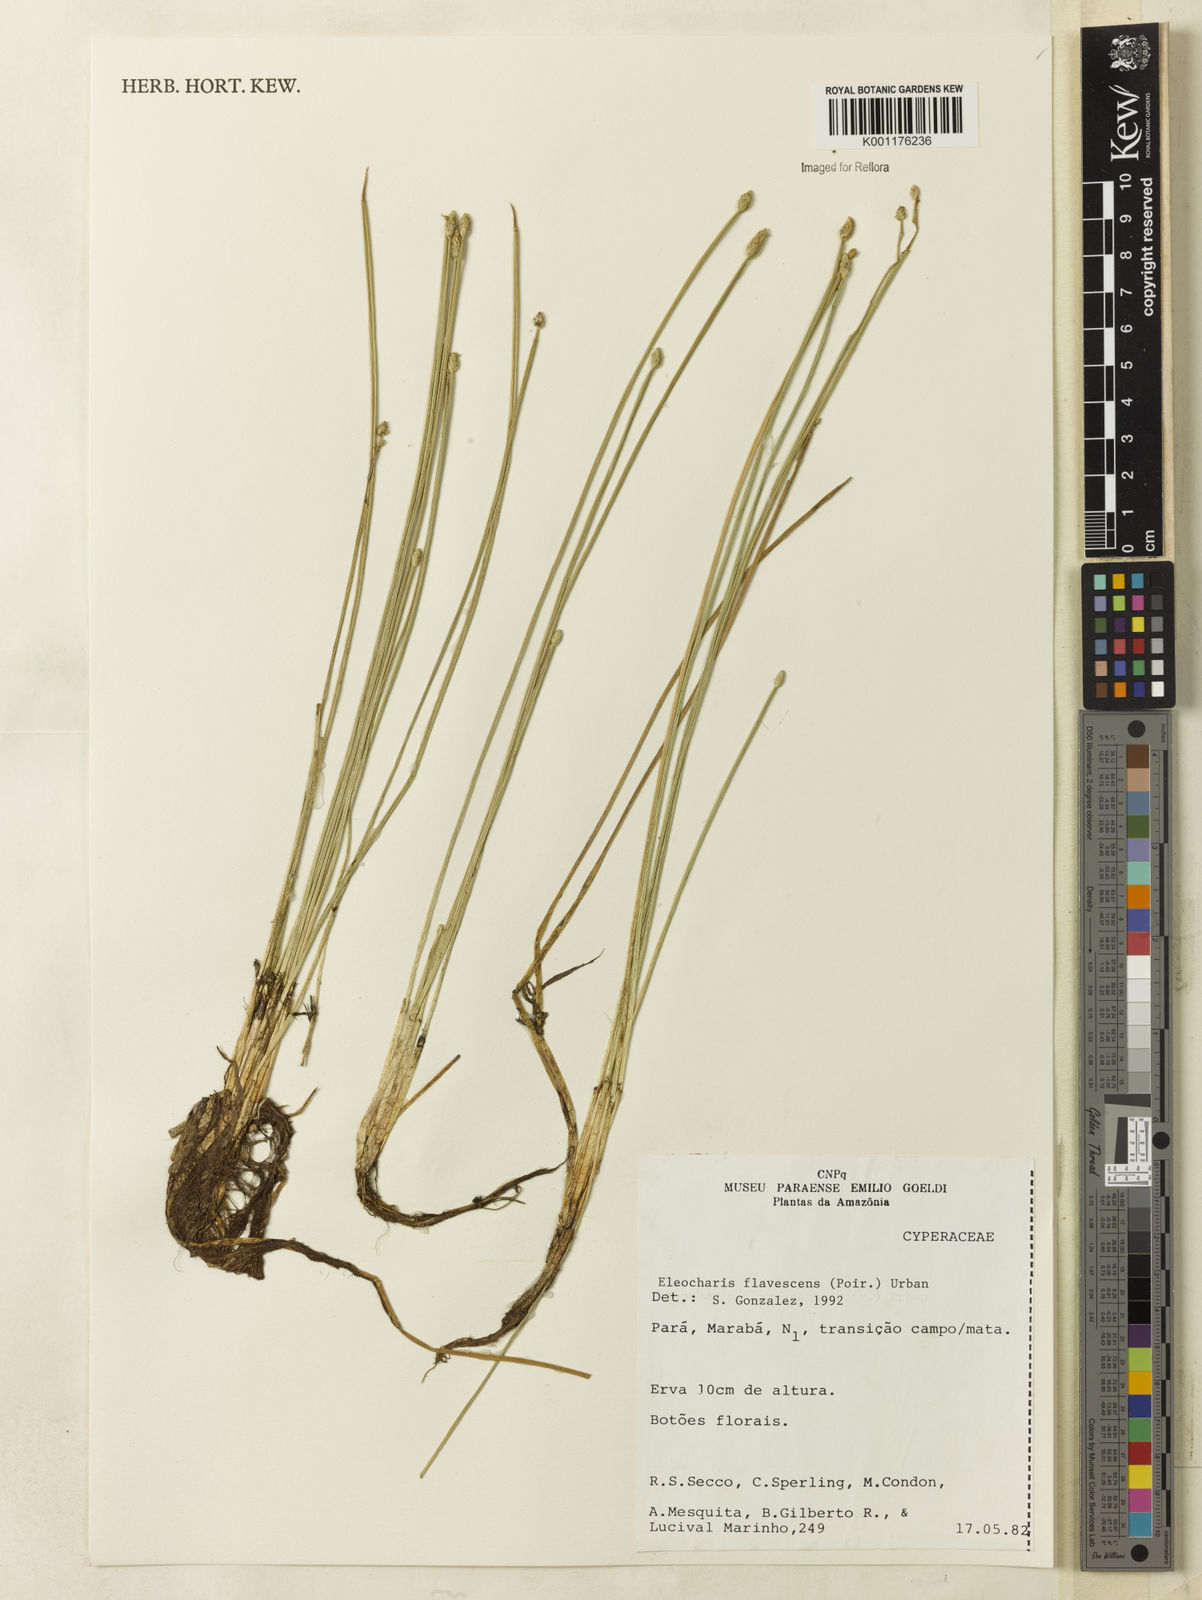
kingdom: Plantae
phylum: Tracheophyta
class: Liliopsida
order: Poales
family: Cyperaceae
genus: Eleocharis
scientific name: Eleocharis flavescens
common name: Yellow spikerush
